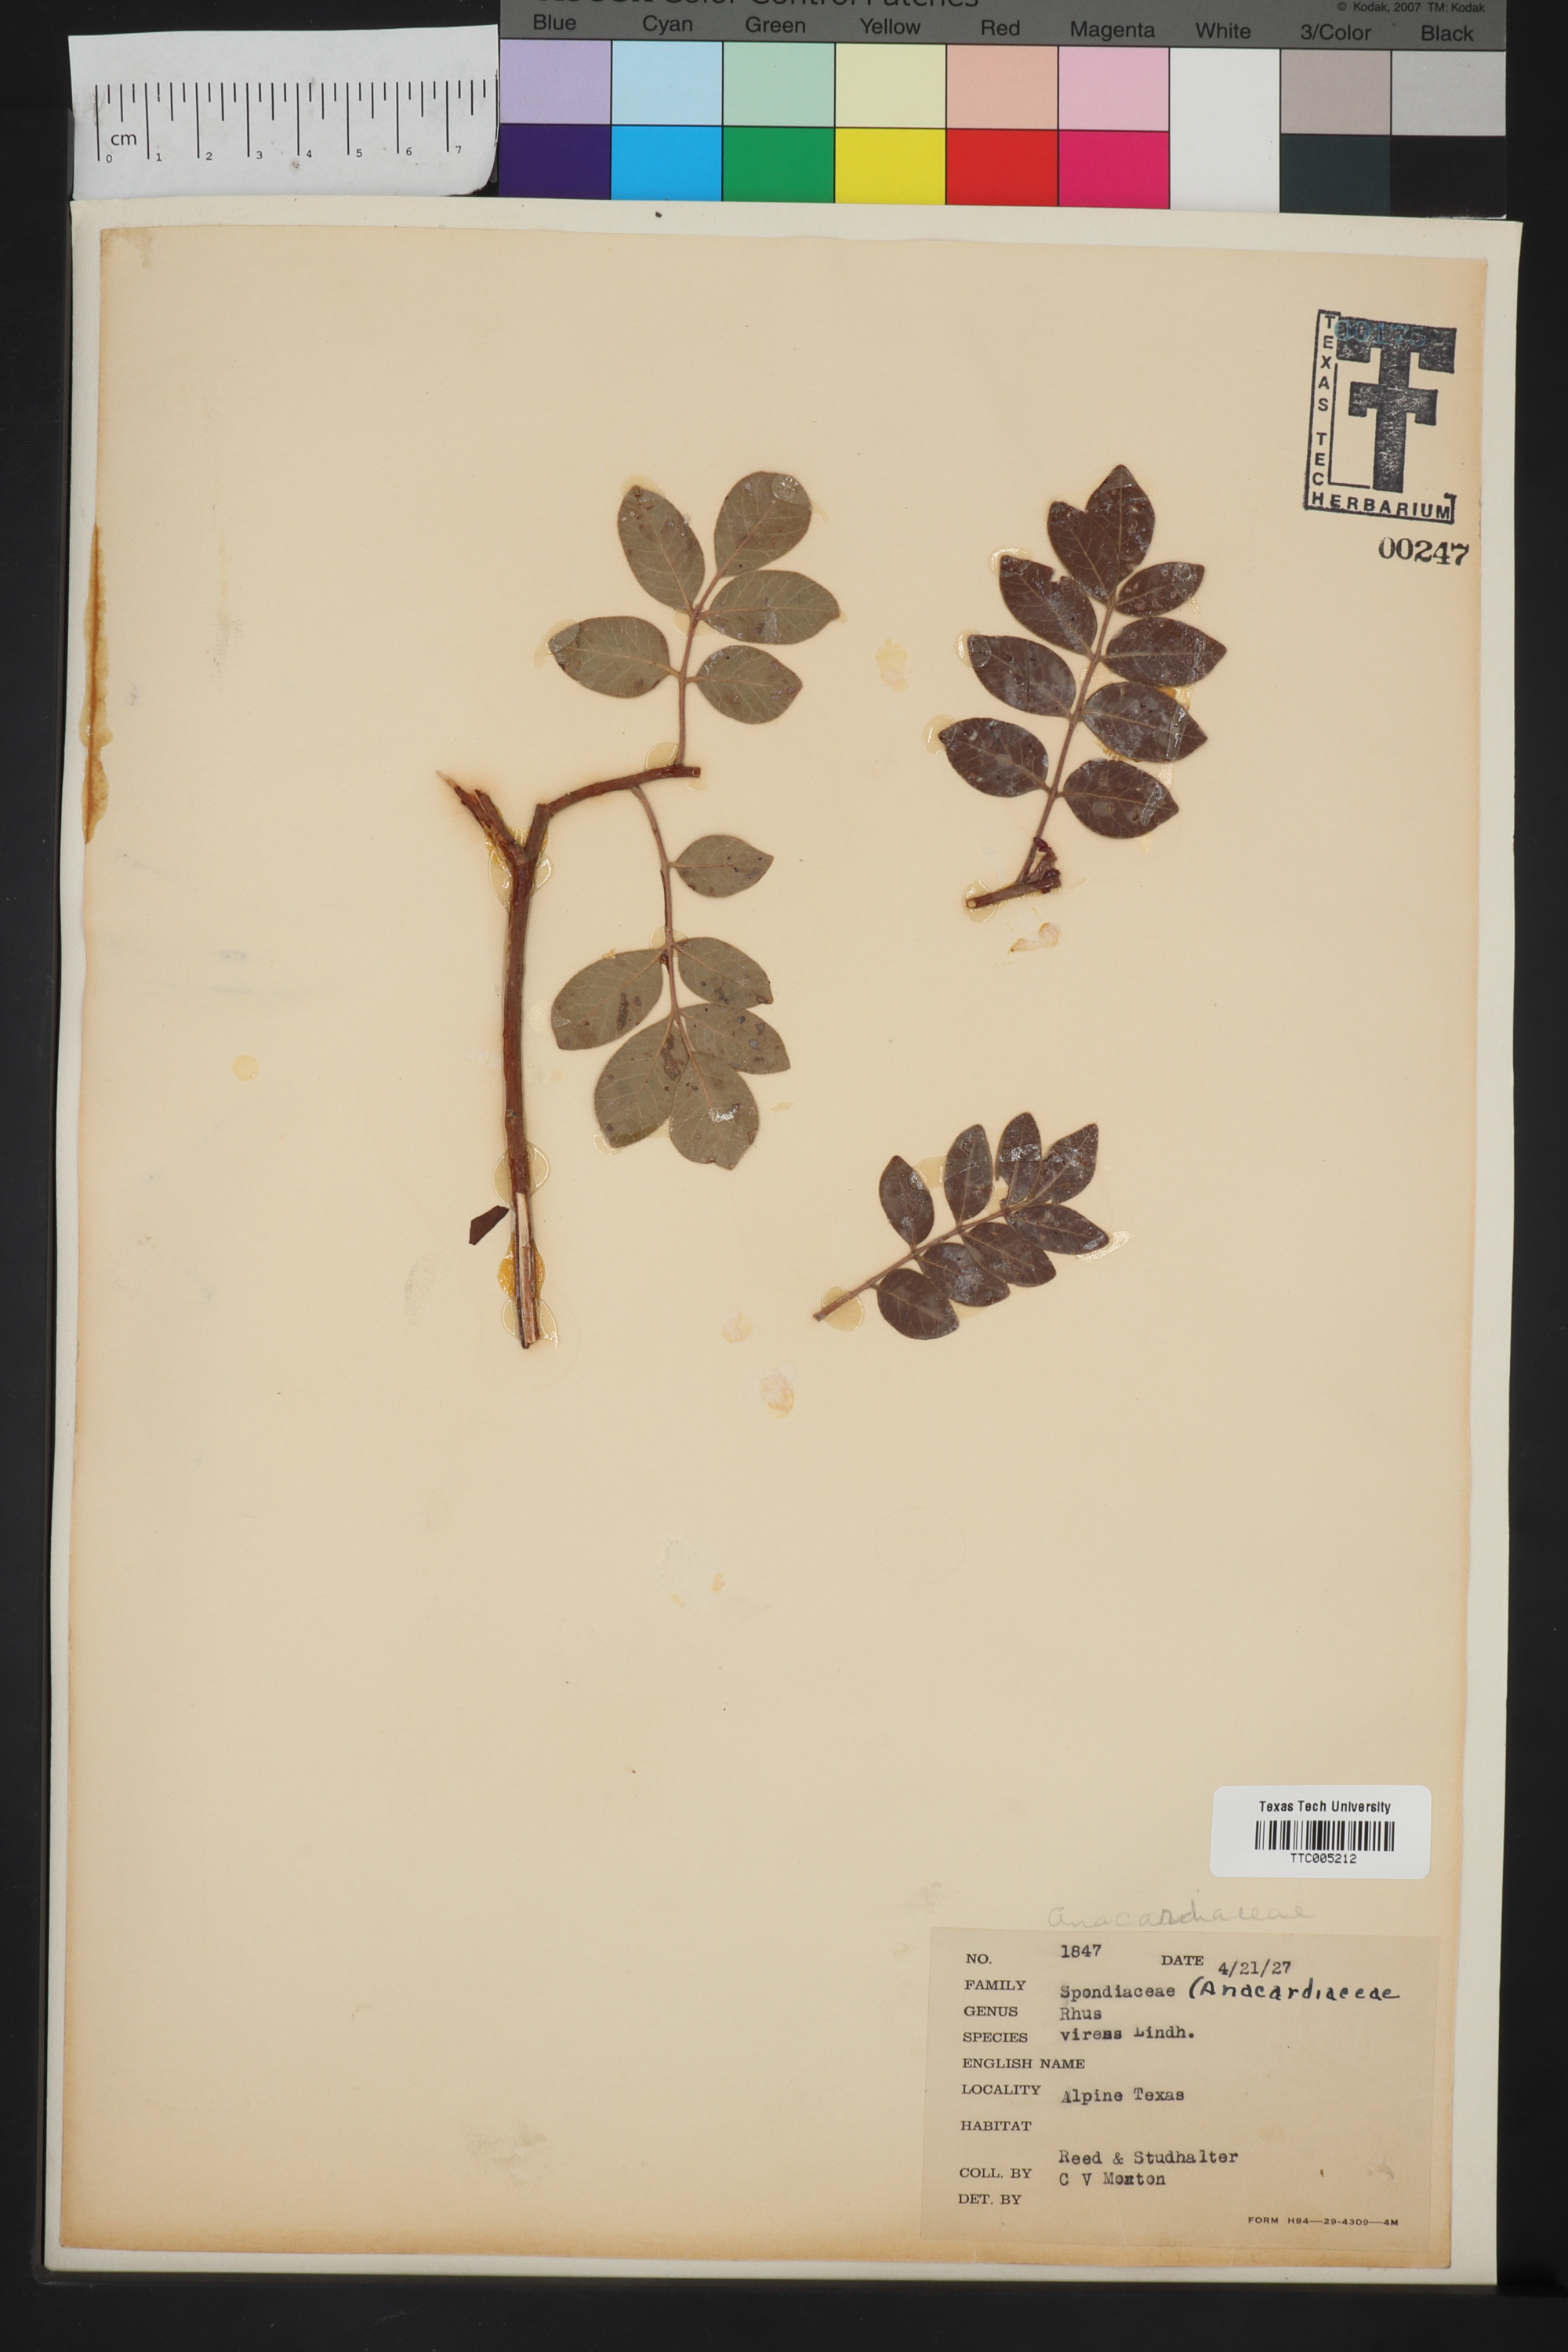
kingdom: Plantae
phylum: Tracheophyta
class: Magnoliopsida
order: Sapindales
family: Anacardiaceae
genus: Rhus
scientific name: Rhus virens
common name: Evergreen sumac
